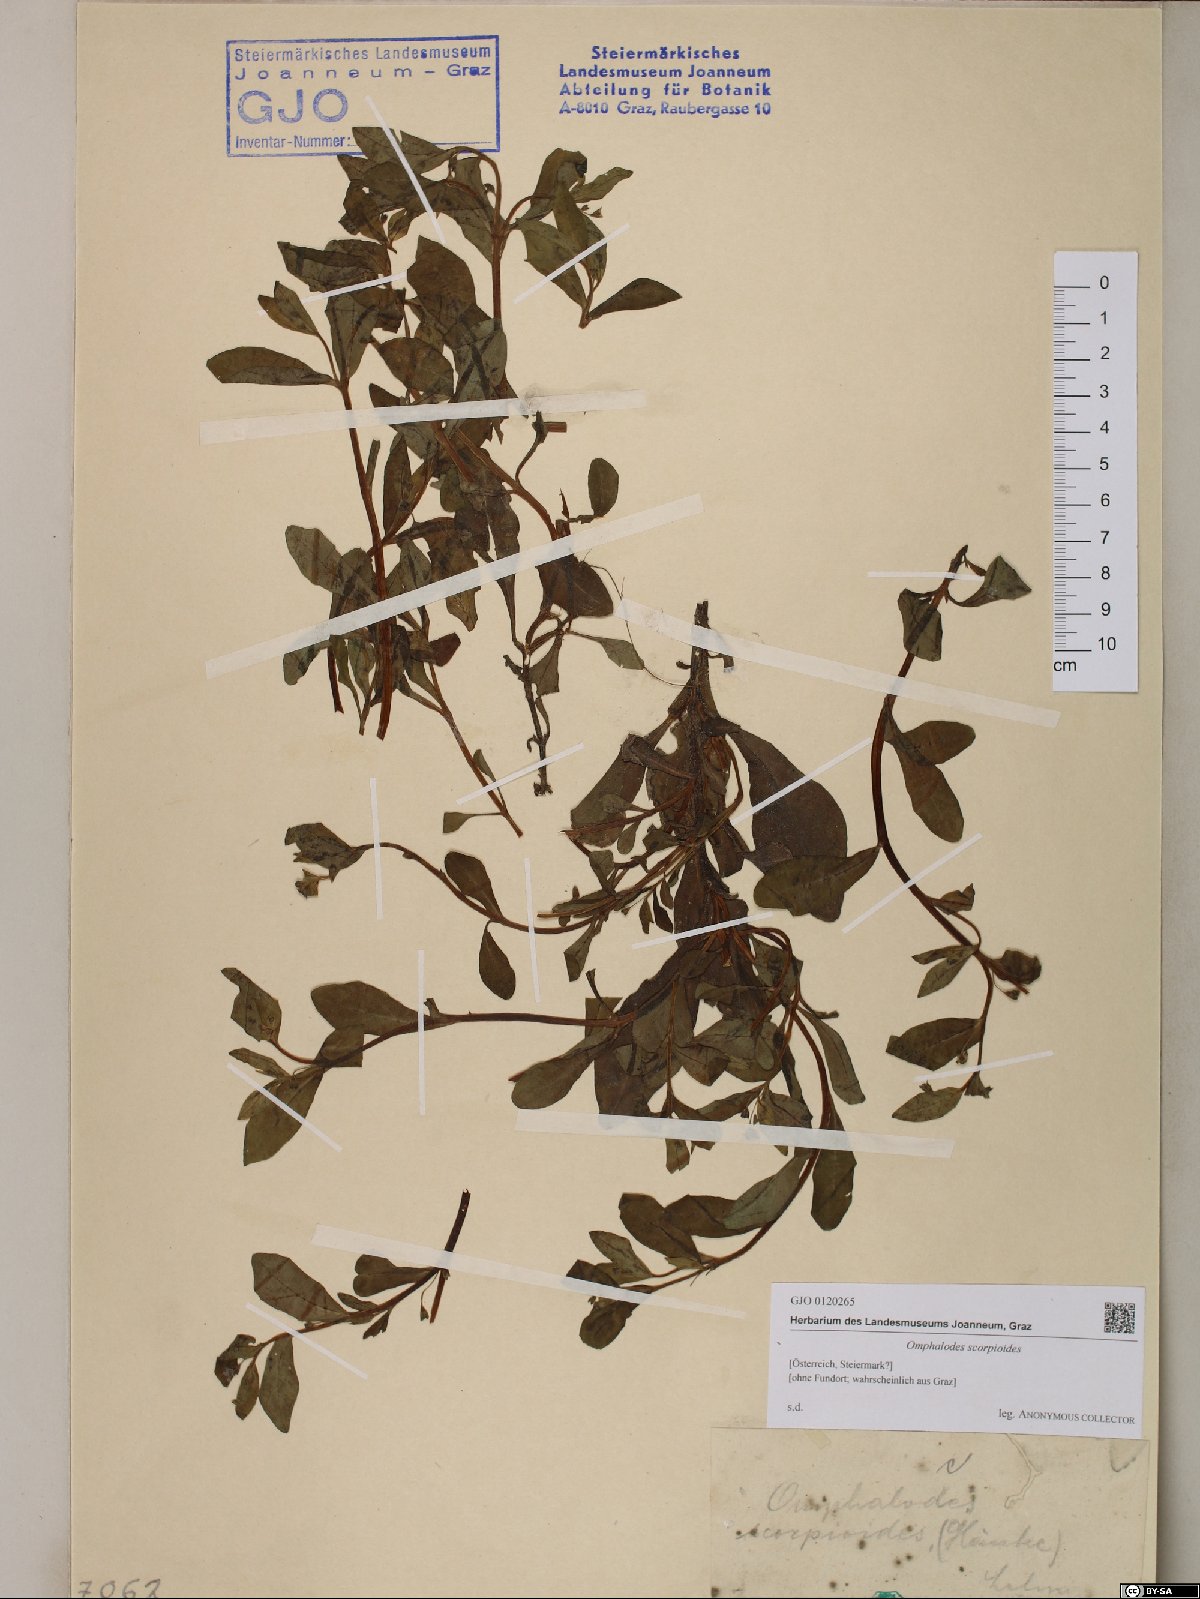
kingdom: Plantae
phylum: Tracheophyta
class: Magnoliopsida
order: Boraginales
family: Boraginaceae
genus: Memoremea
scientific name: Memoremea scorpioides
